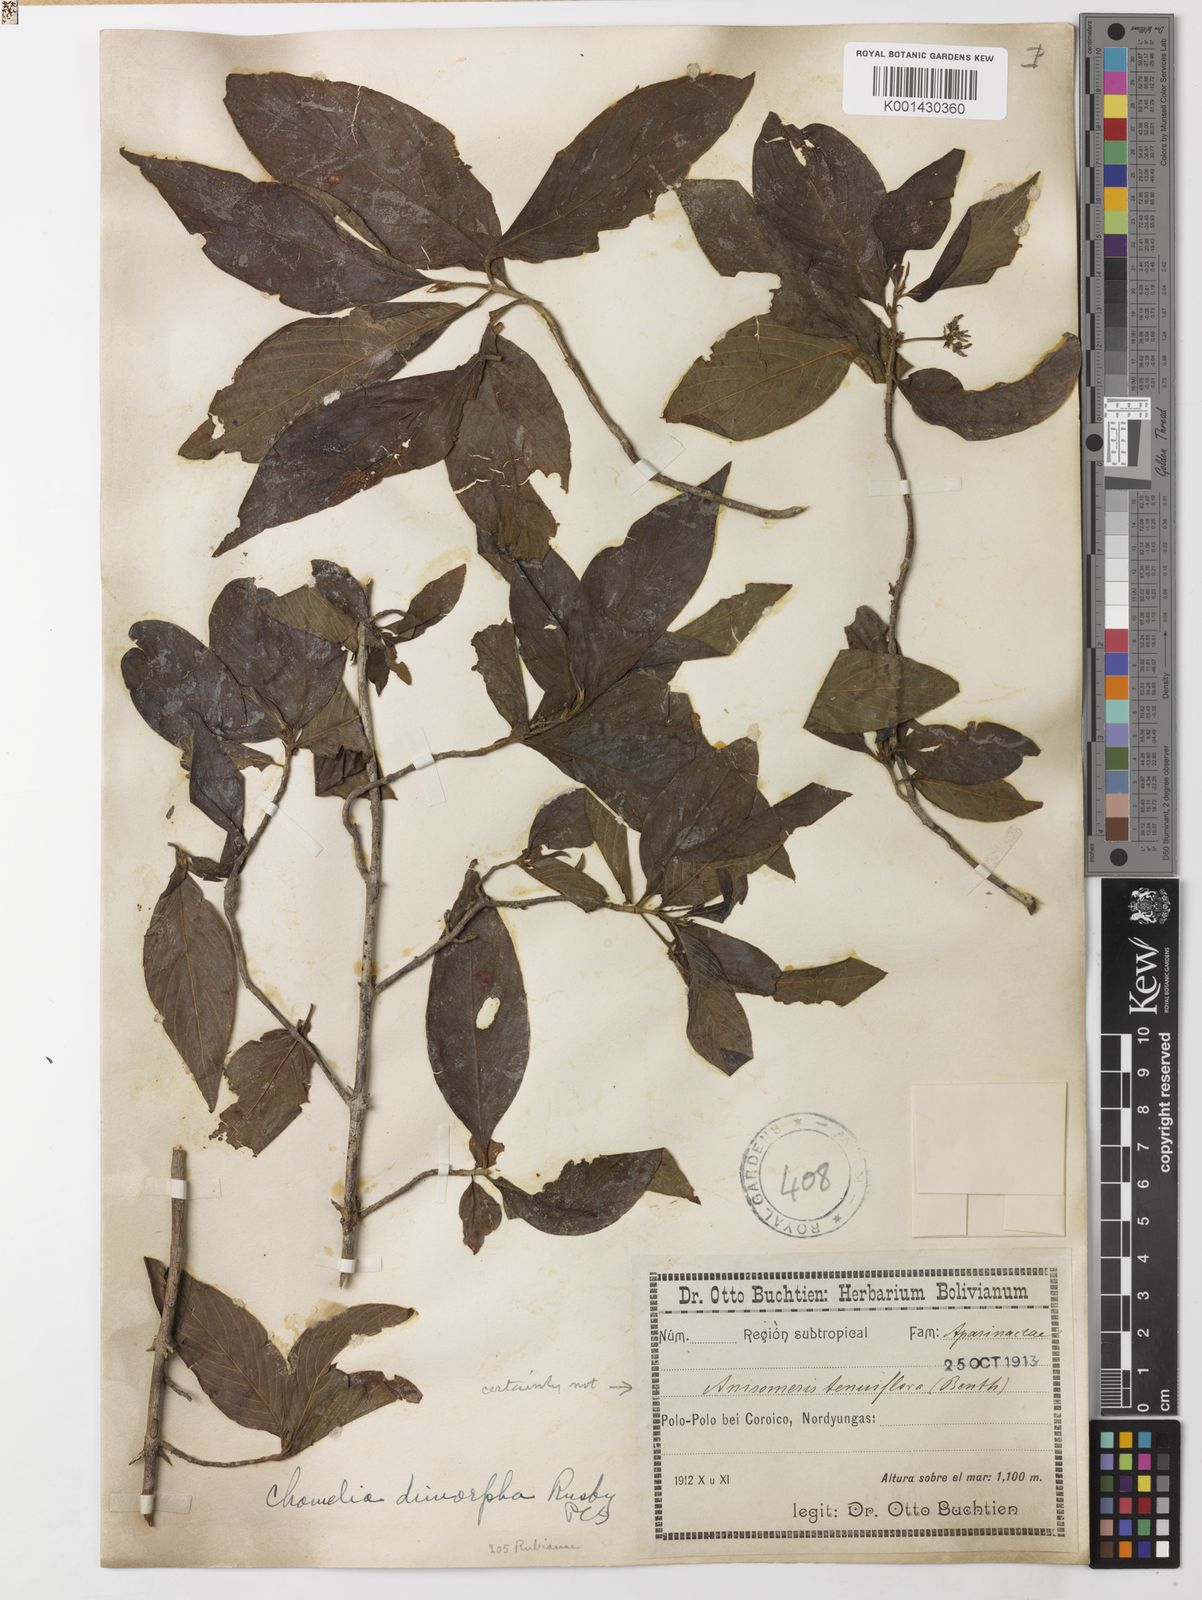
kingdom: Plantae
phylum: Tracheophyta
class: Magnoliopsida
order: Gentianales
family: Rubiaceae
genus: Chomelia
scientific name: Chomelia paniculata
